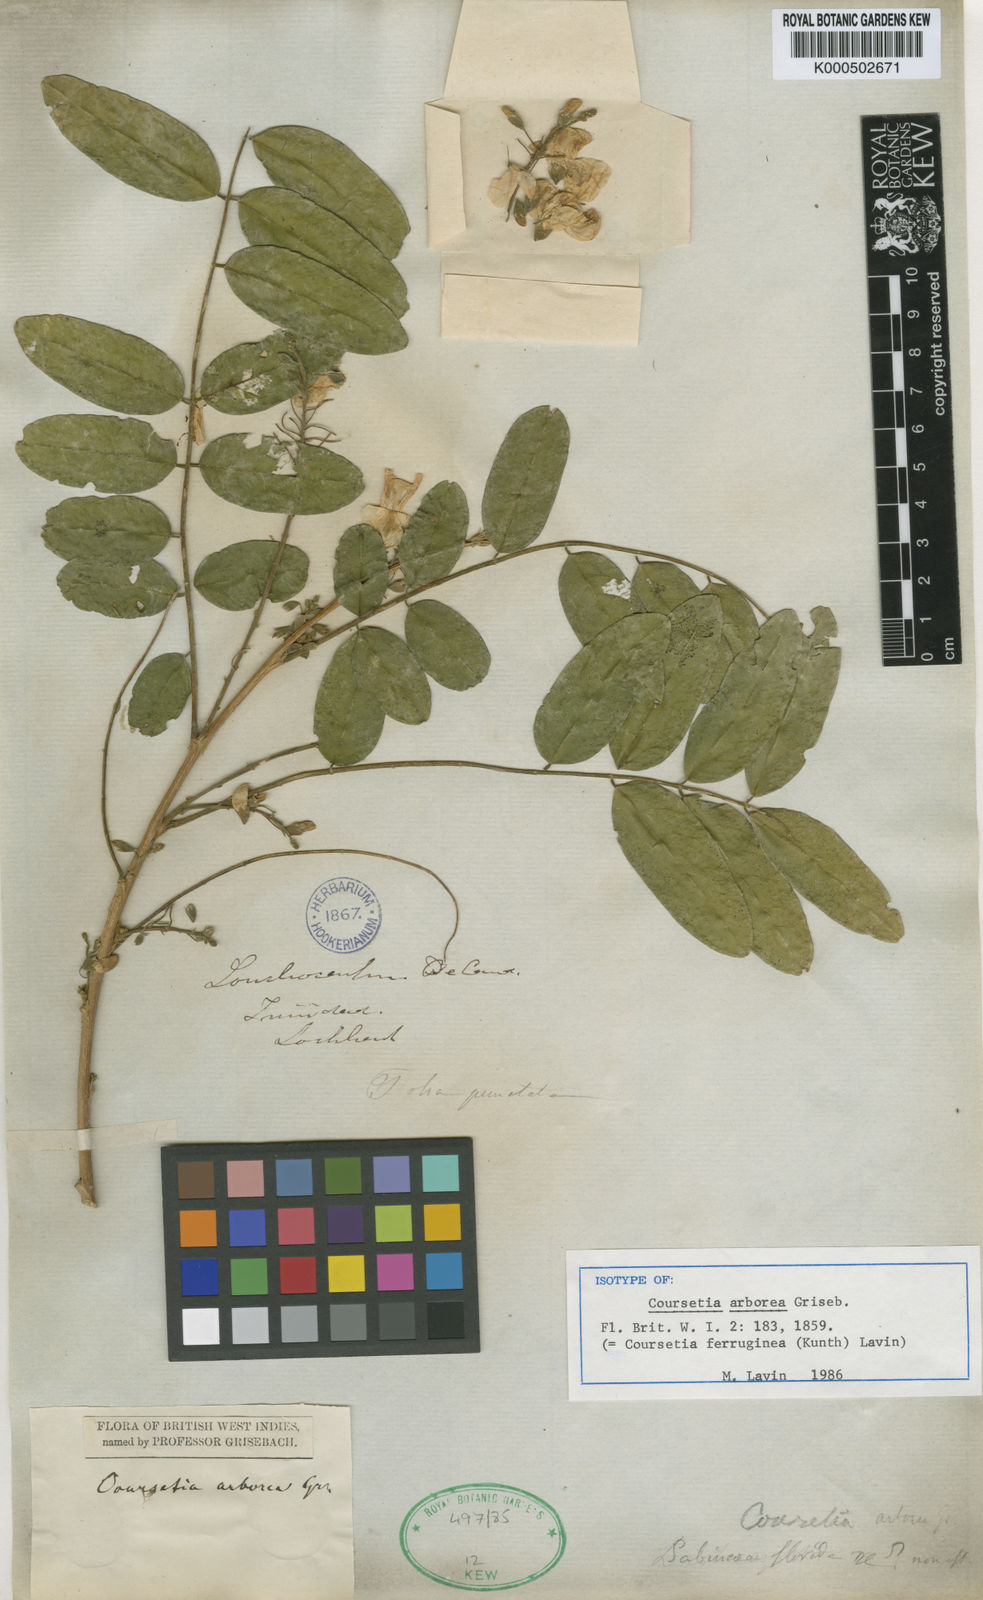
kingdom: Plantae
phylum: Tracheophyta
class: Magnoliopsida
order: Fabales
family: Fabaceae
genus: Coursetia
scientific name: Coursetia ferruginea
